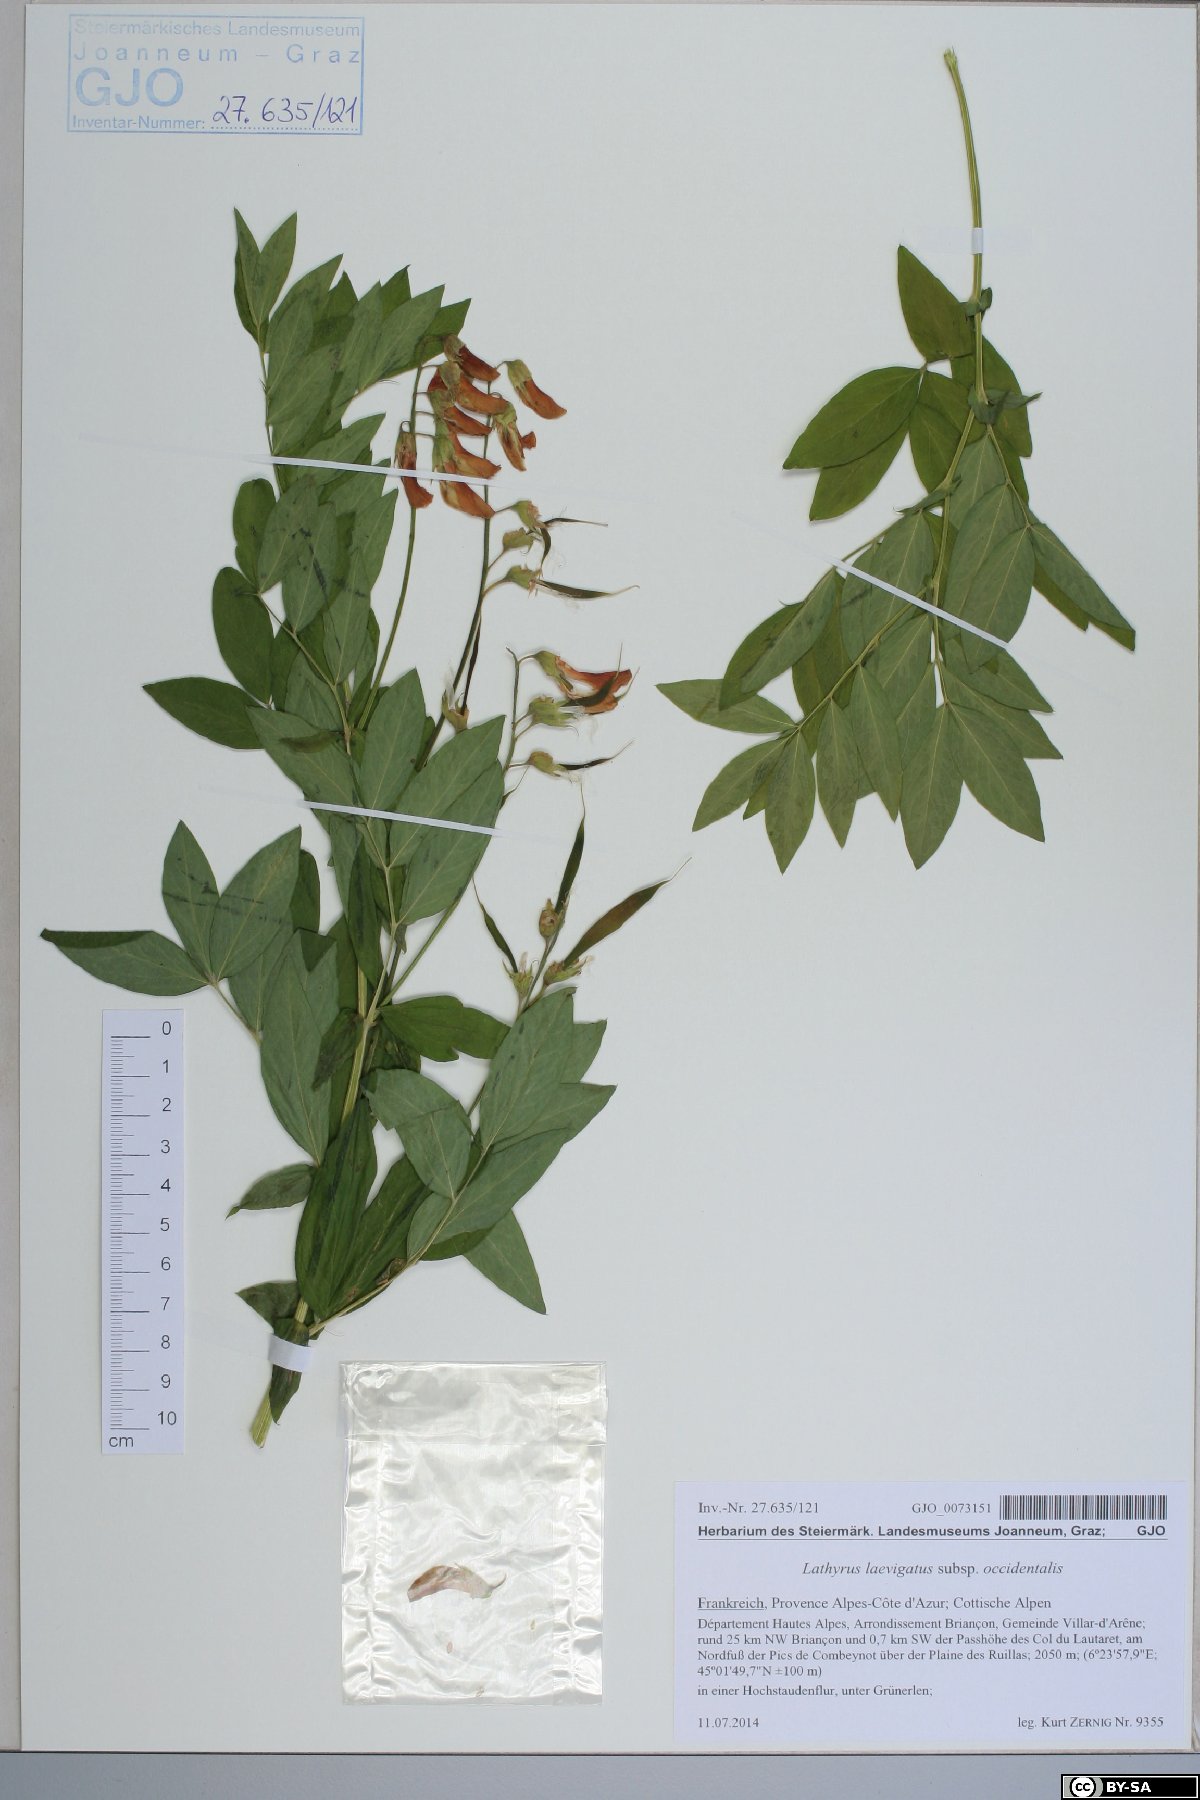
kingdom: Plantae
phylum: Tracheophyta
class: Magnoliopsida
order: Fabales
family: Fabaceae
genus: Lathyrus
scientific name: Lathyrus laevigatus
